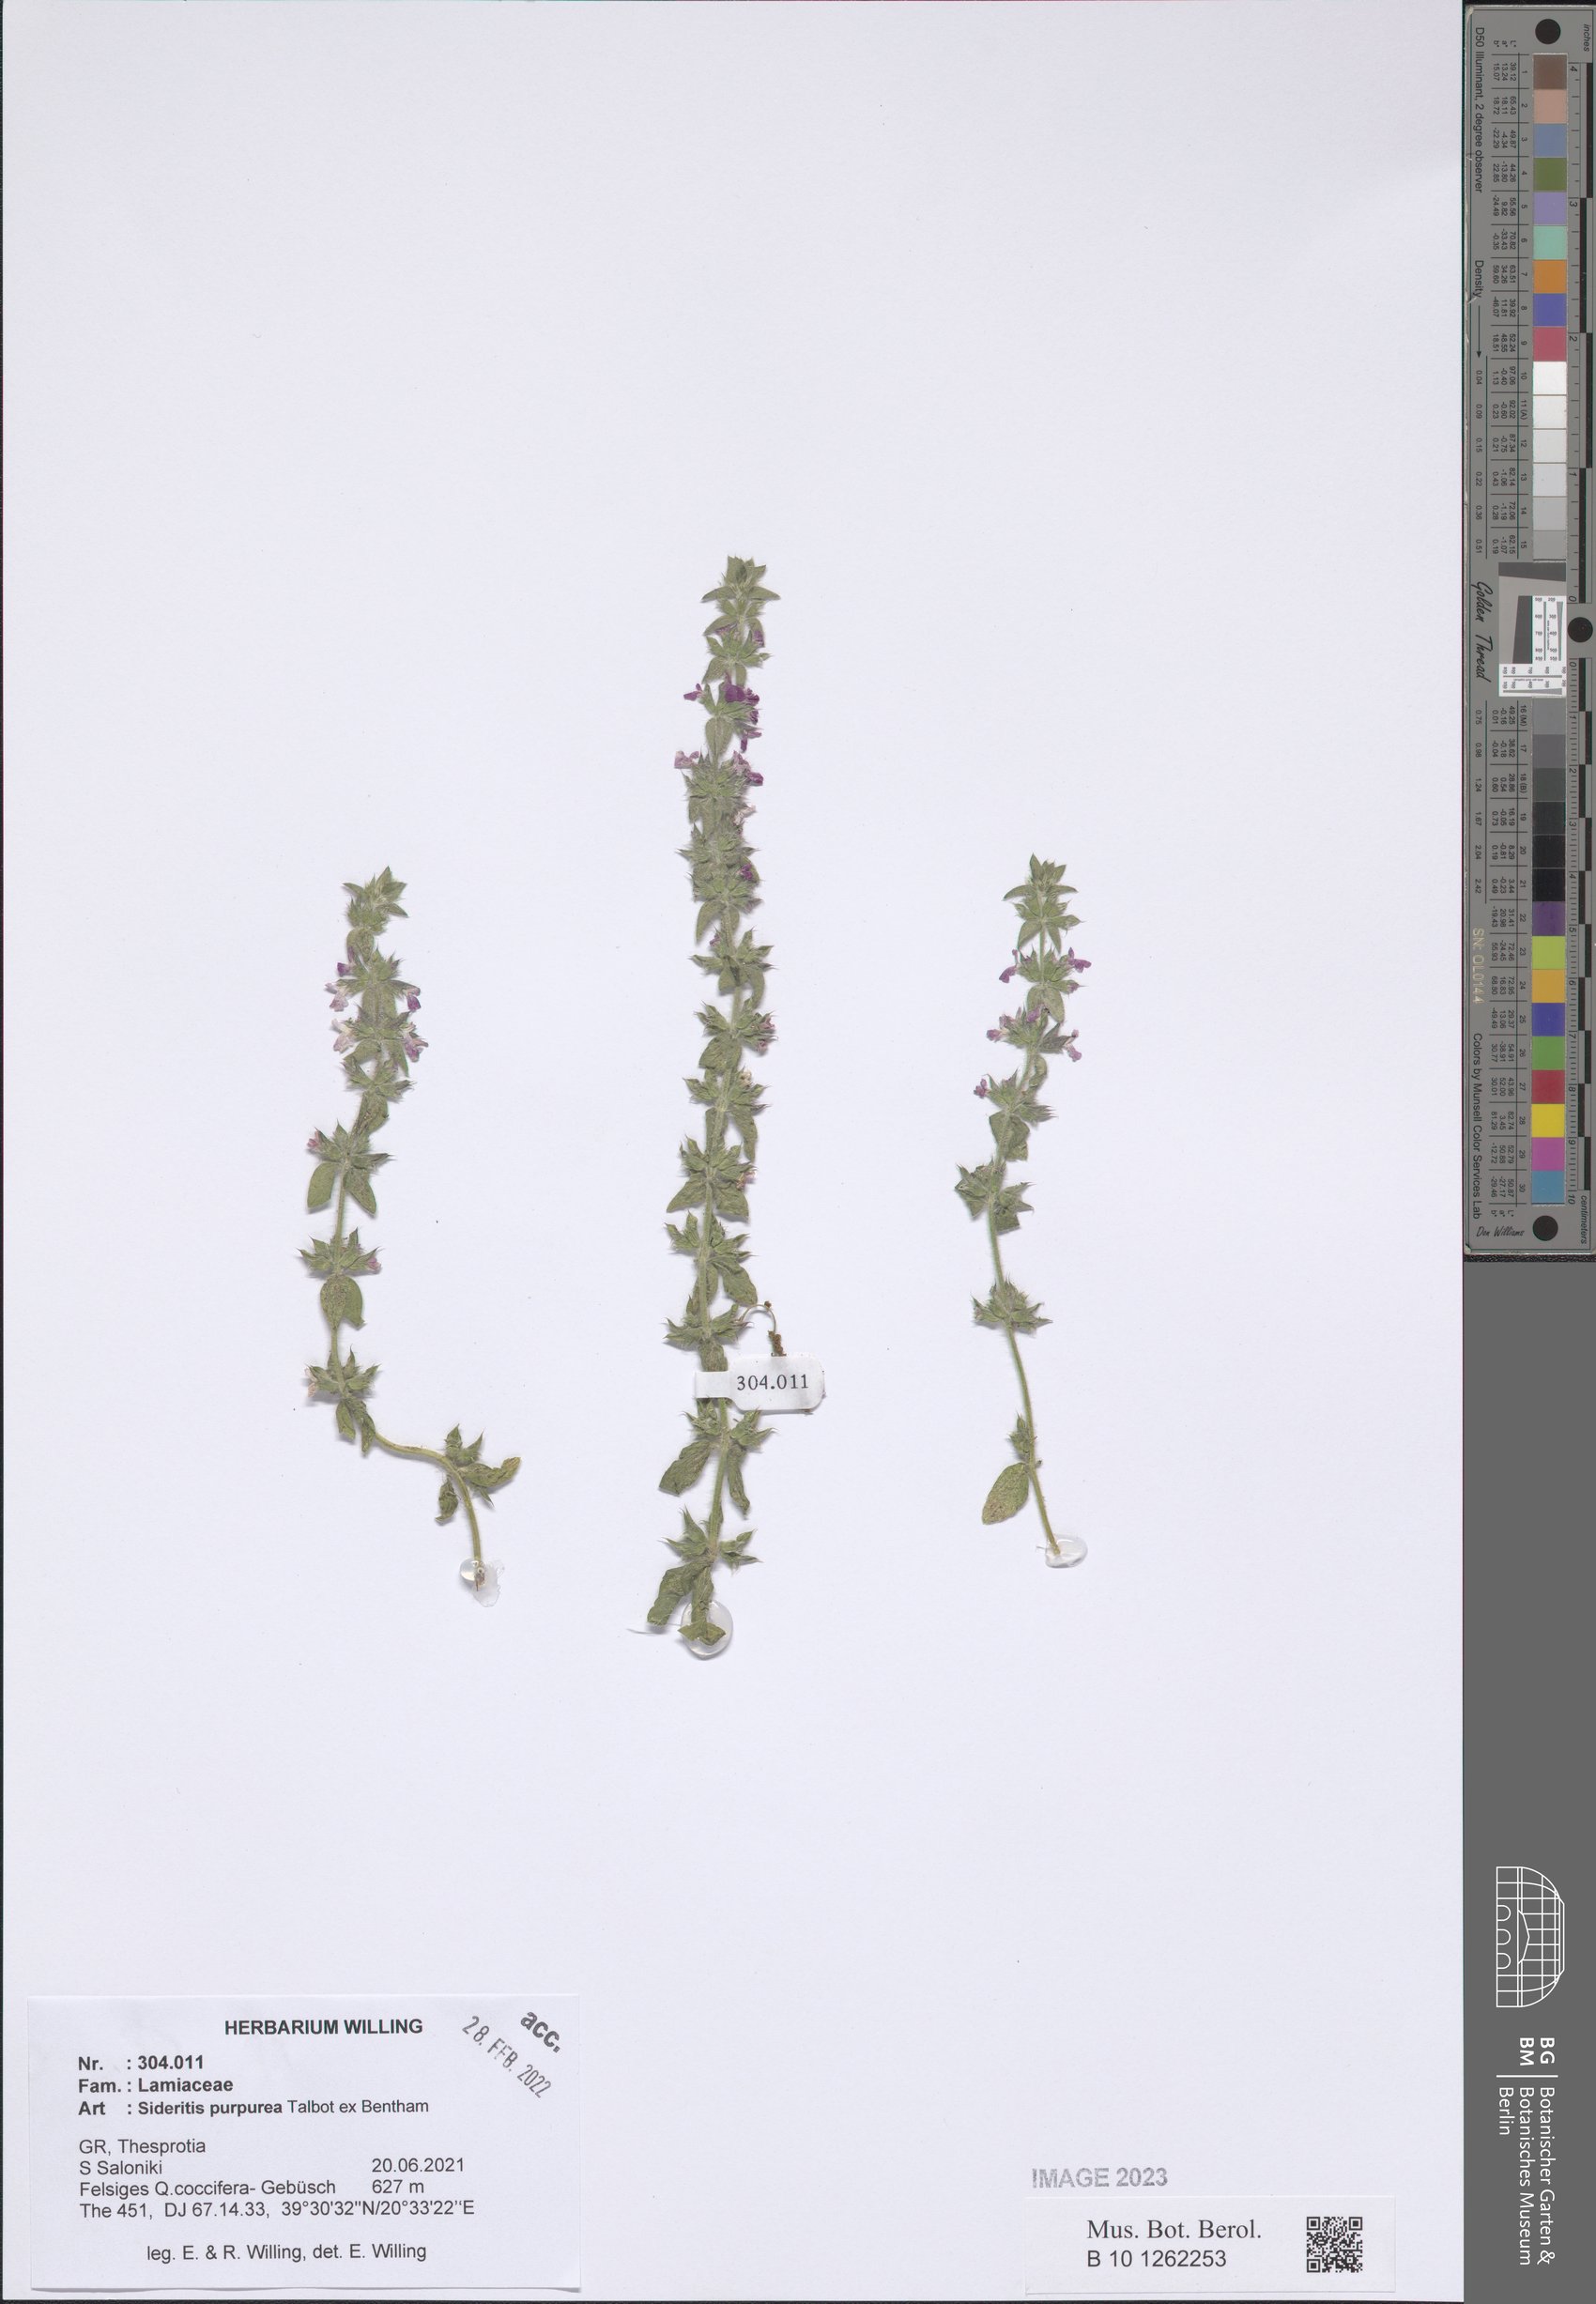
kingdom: Plantae
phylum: Tracheophyta
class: Magnoliopsida
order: Lamiales
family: Lamiaceae
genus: Sideritis
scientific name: Sideritis romana
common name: Simplebeak ironwort
